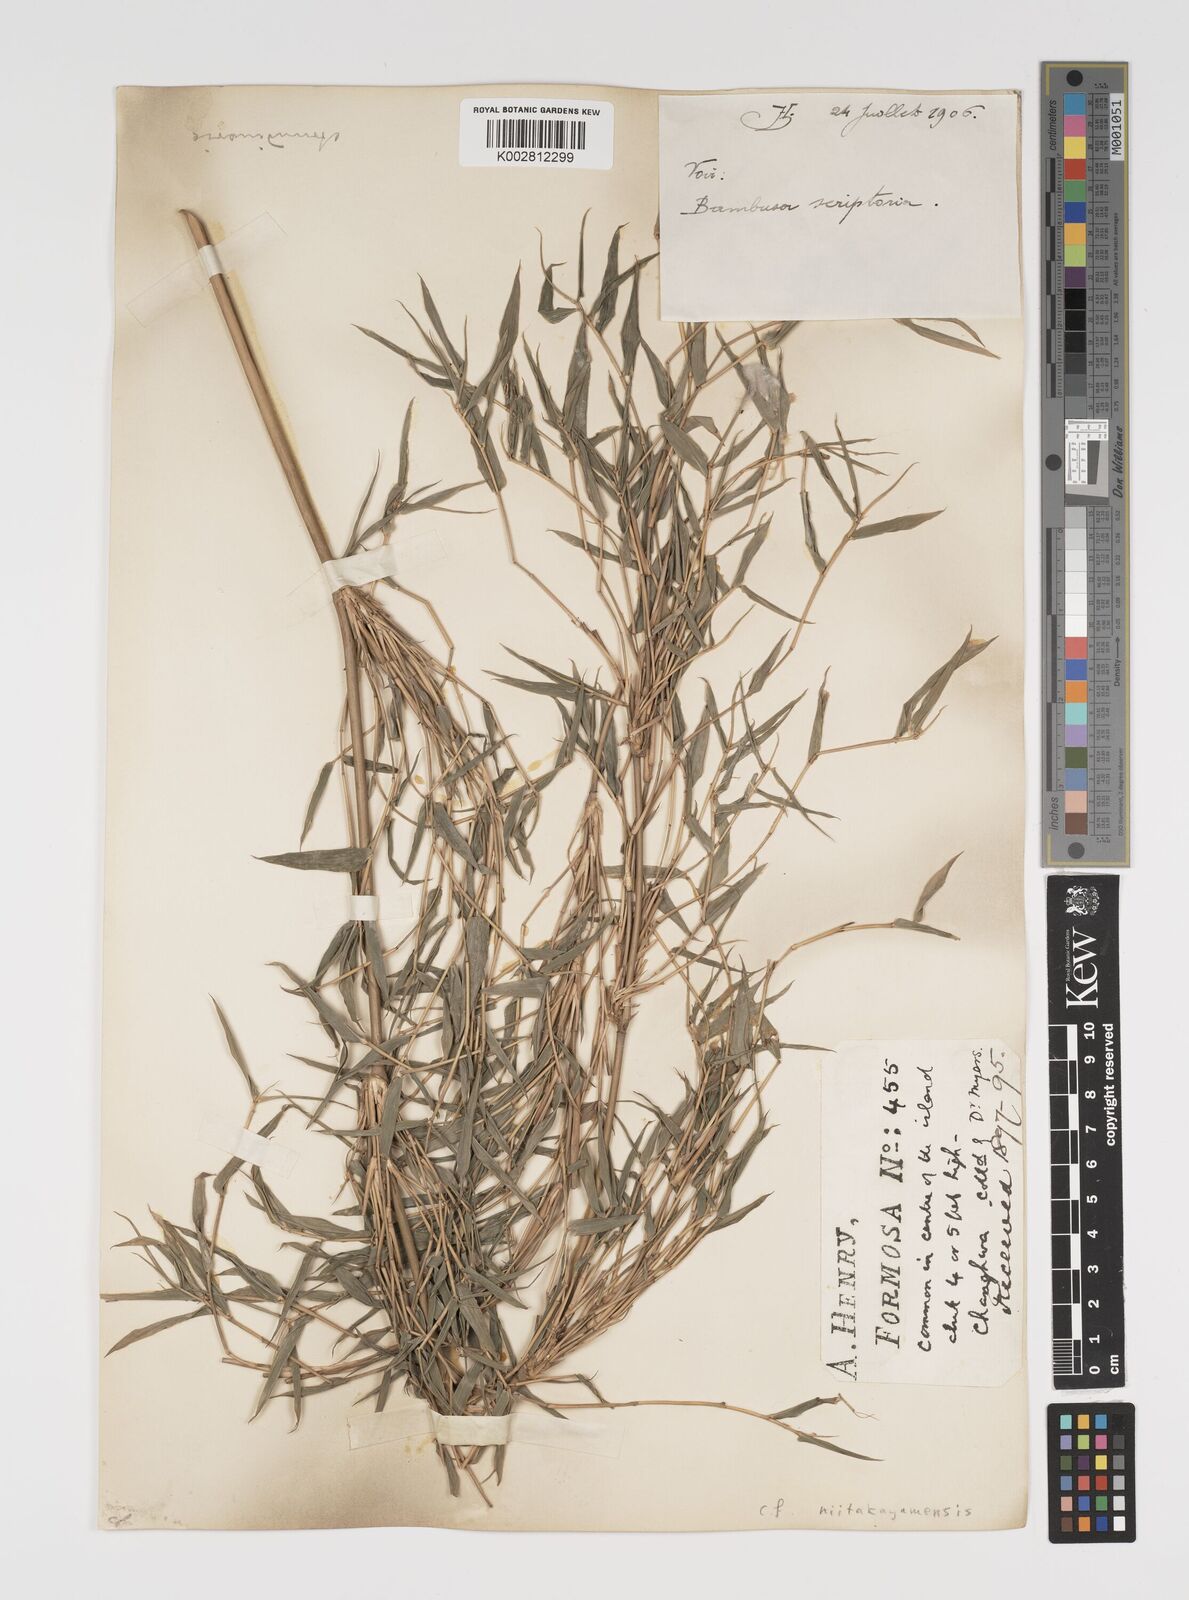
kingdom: Plantae
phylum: Tracheophyta
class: Liliopsida
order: Poales
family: Poaceae
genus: Yushania
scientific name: Yushania niitakayamensis
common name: Yushan cane
